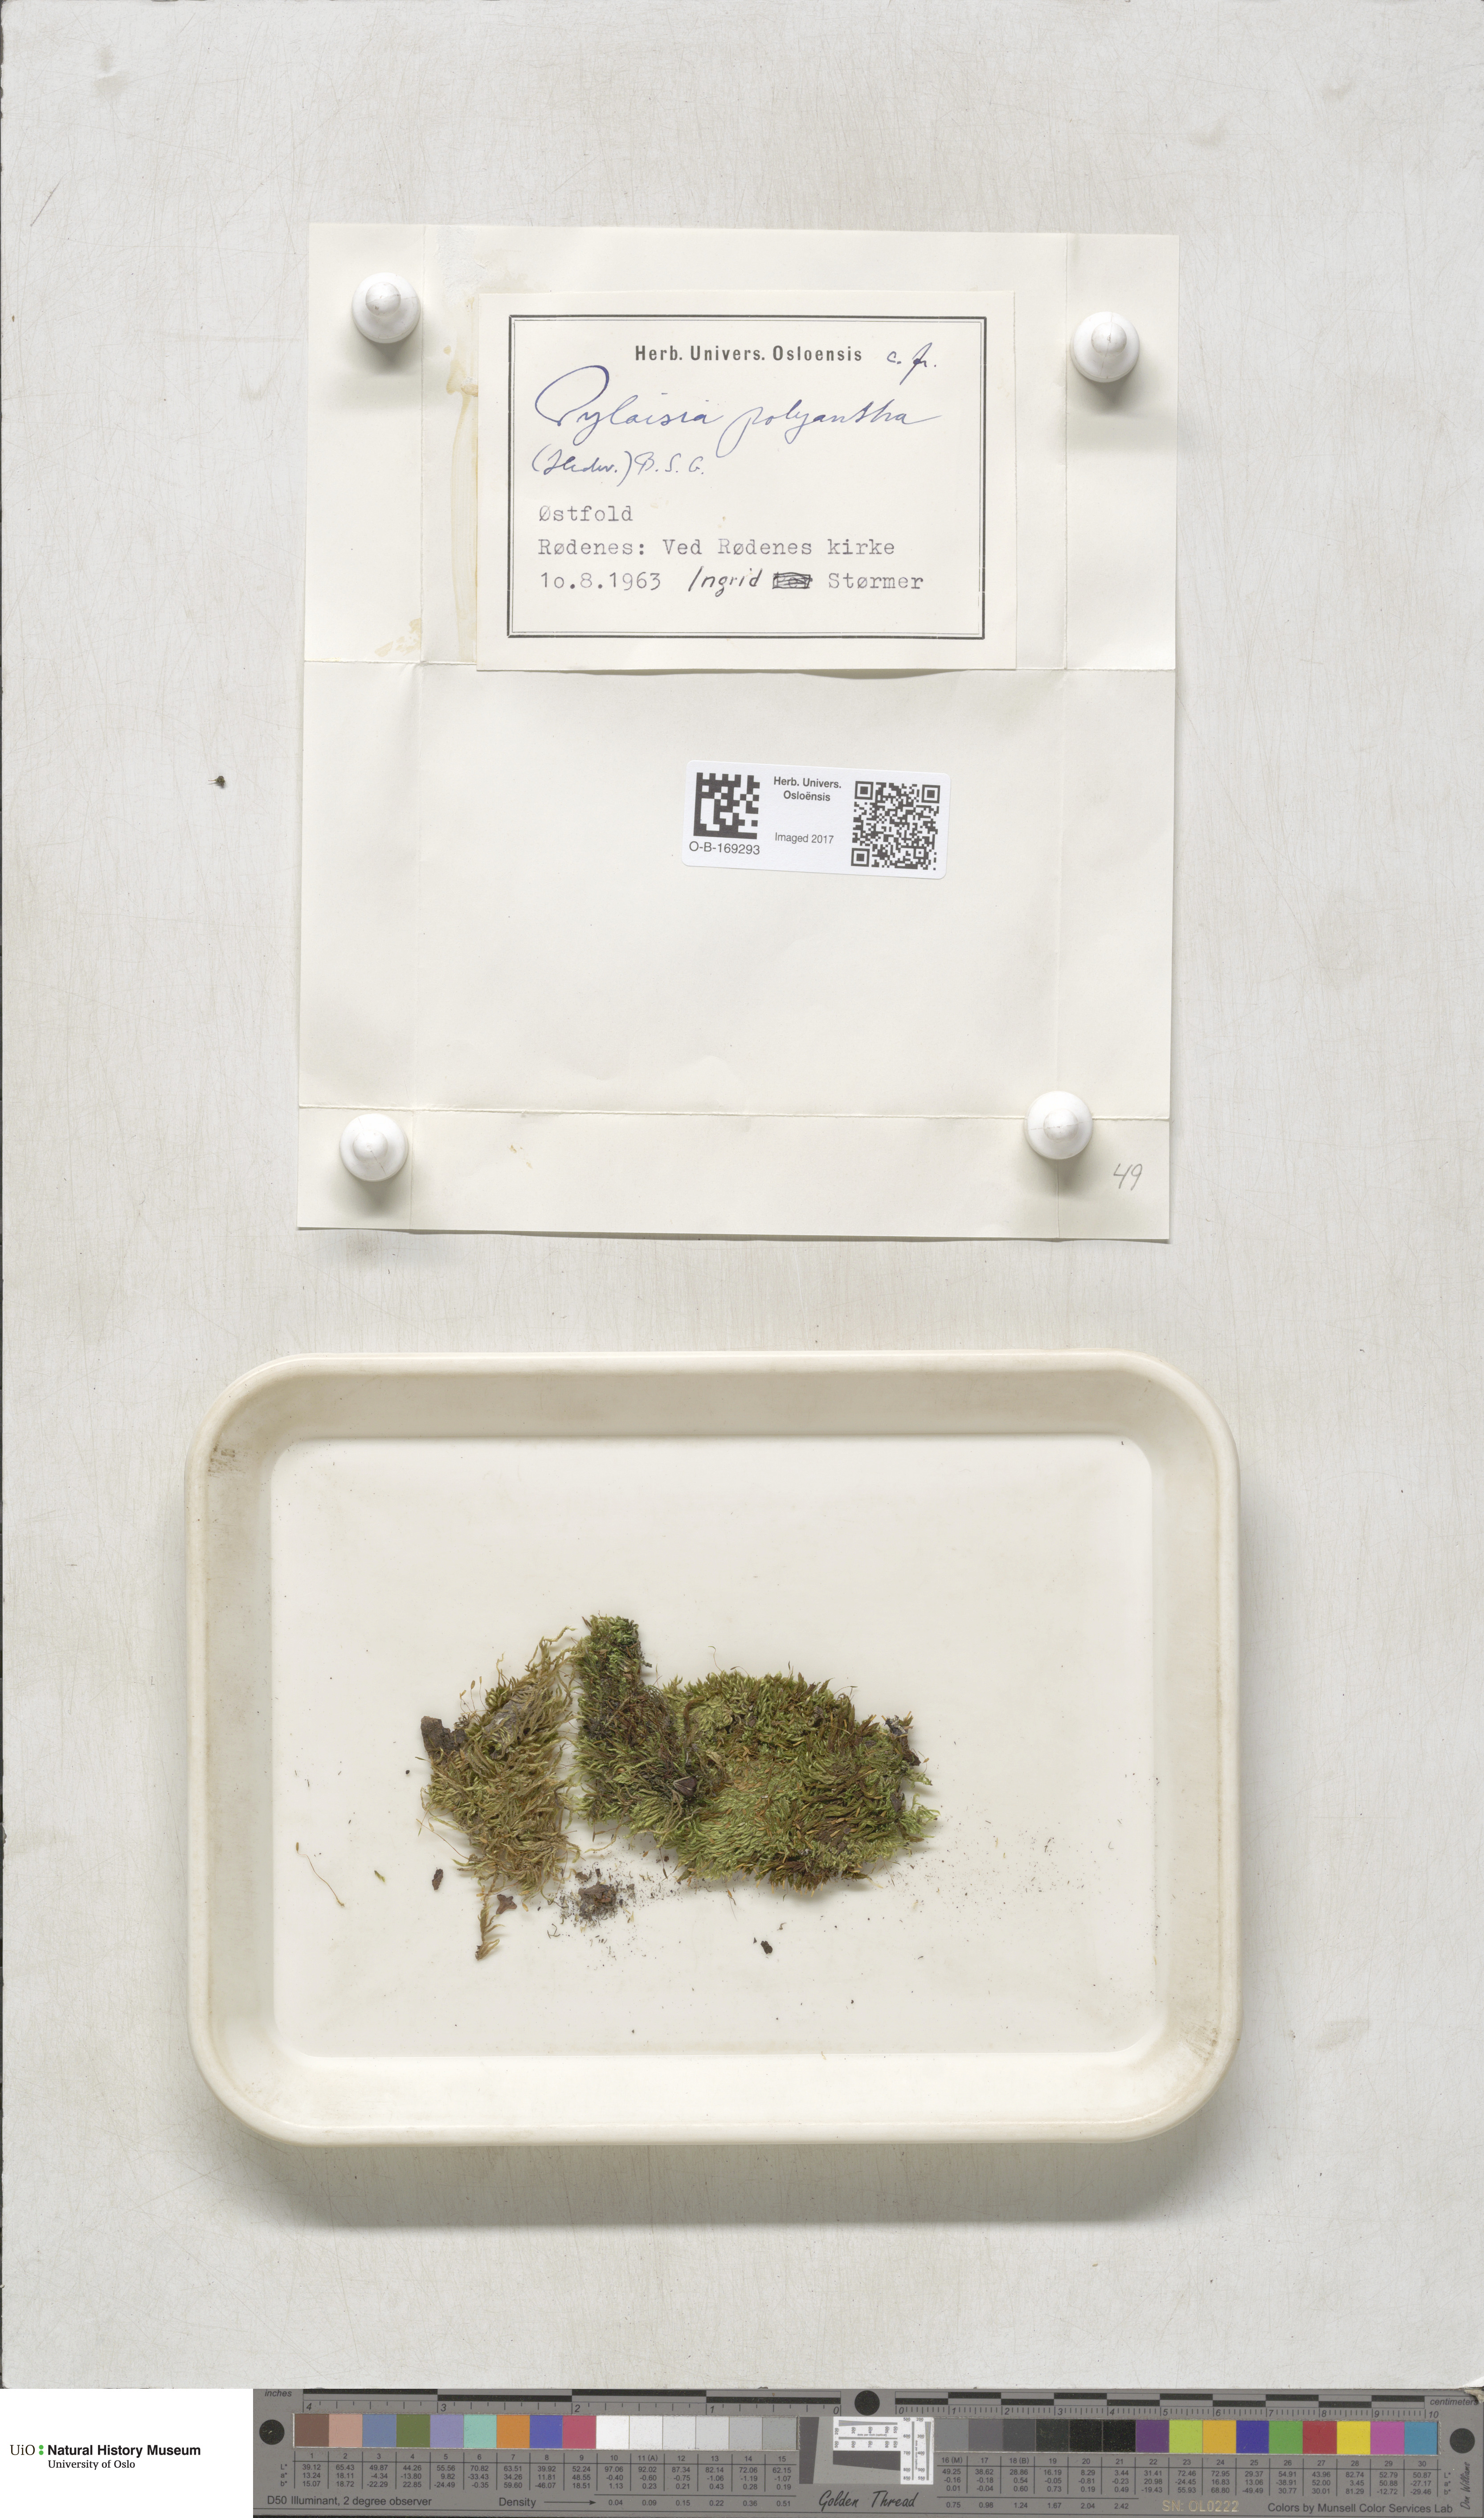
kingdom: Plantae
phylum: Bryophyta
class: Bryopsida
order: Hypnales
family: Pylaisiaceae
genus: Pylaisia
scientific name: Pylaisia polyantha
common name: Many-flowered leskea
